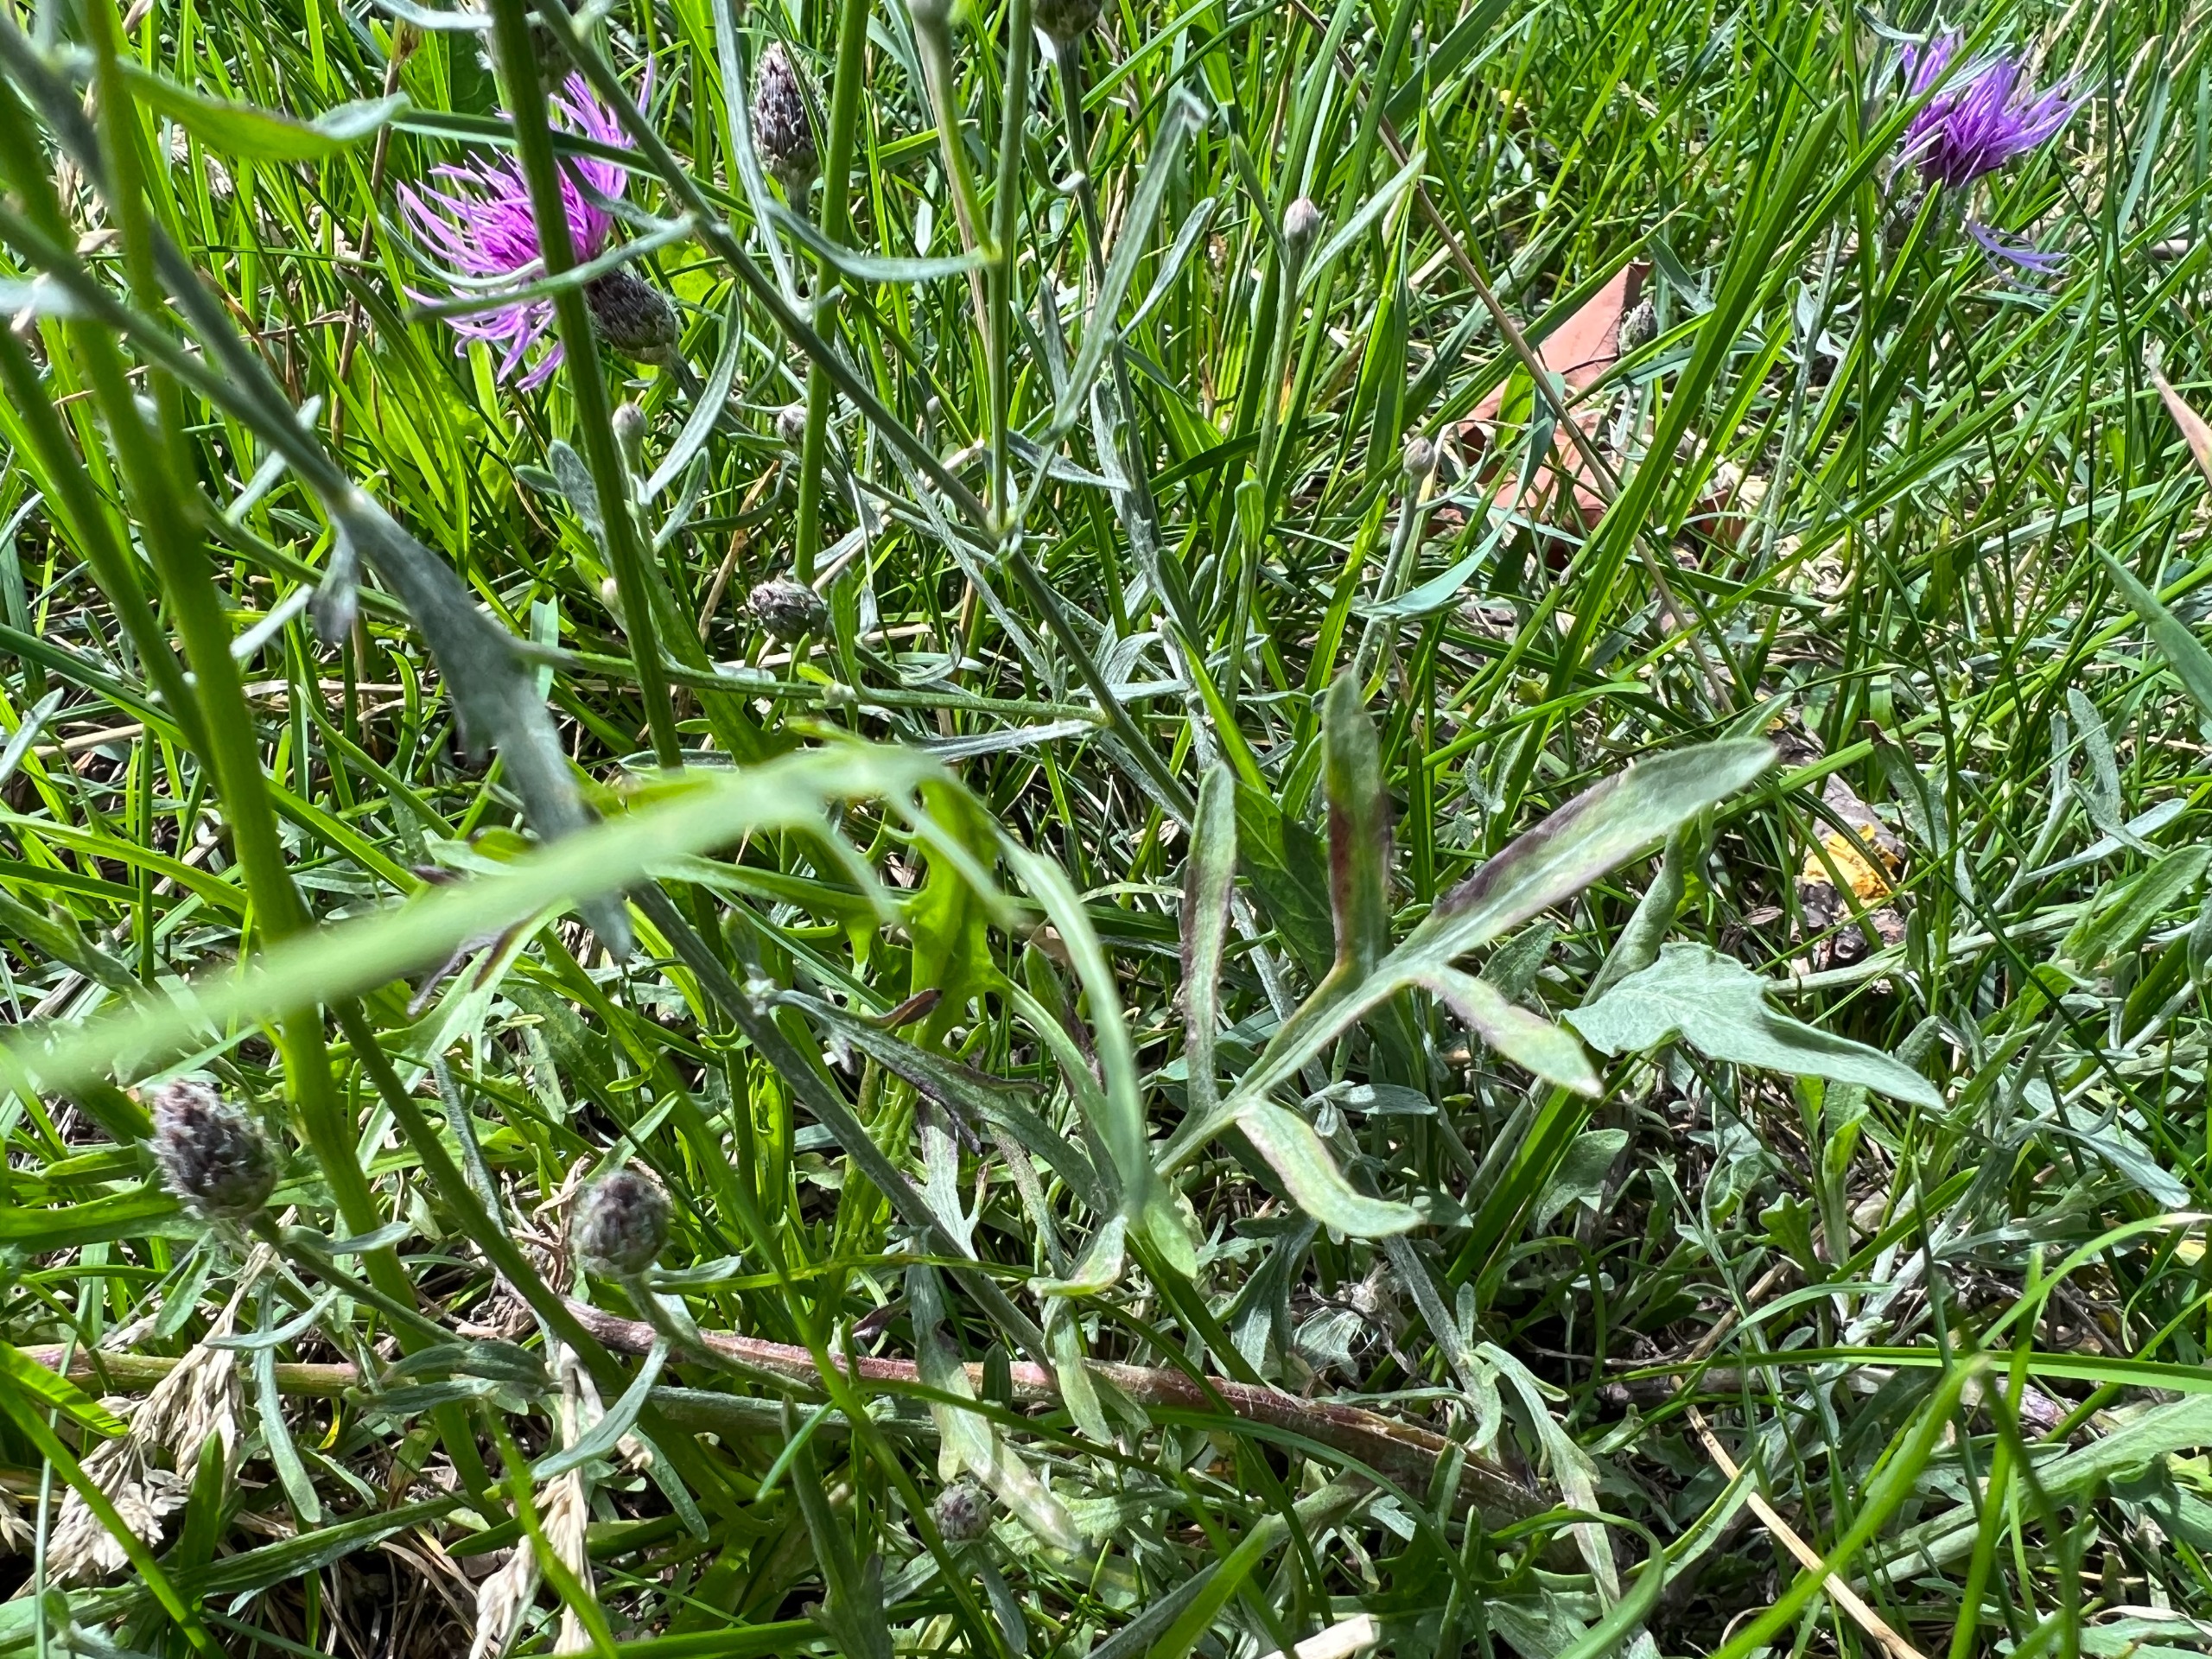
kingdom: Plantae
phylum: Tracheophyta
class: Magnoliopsida
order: Asterales
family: Asteraceae
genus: Centaurea
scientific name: Centaurea stoebe
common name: Mangegrenet knopurt
